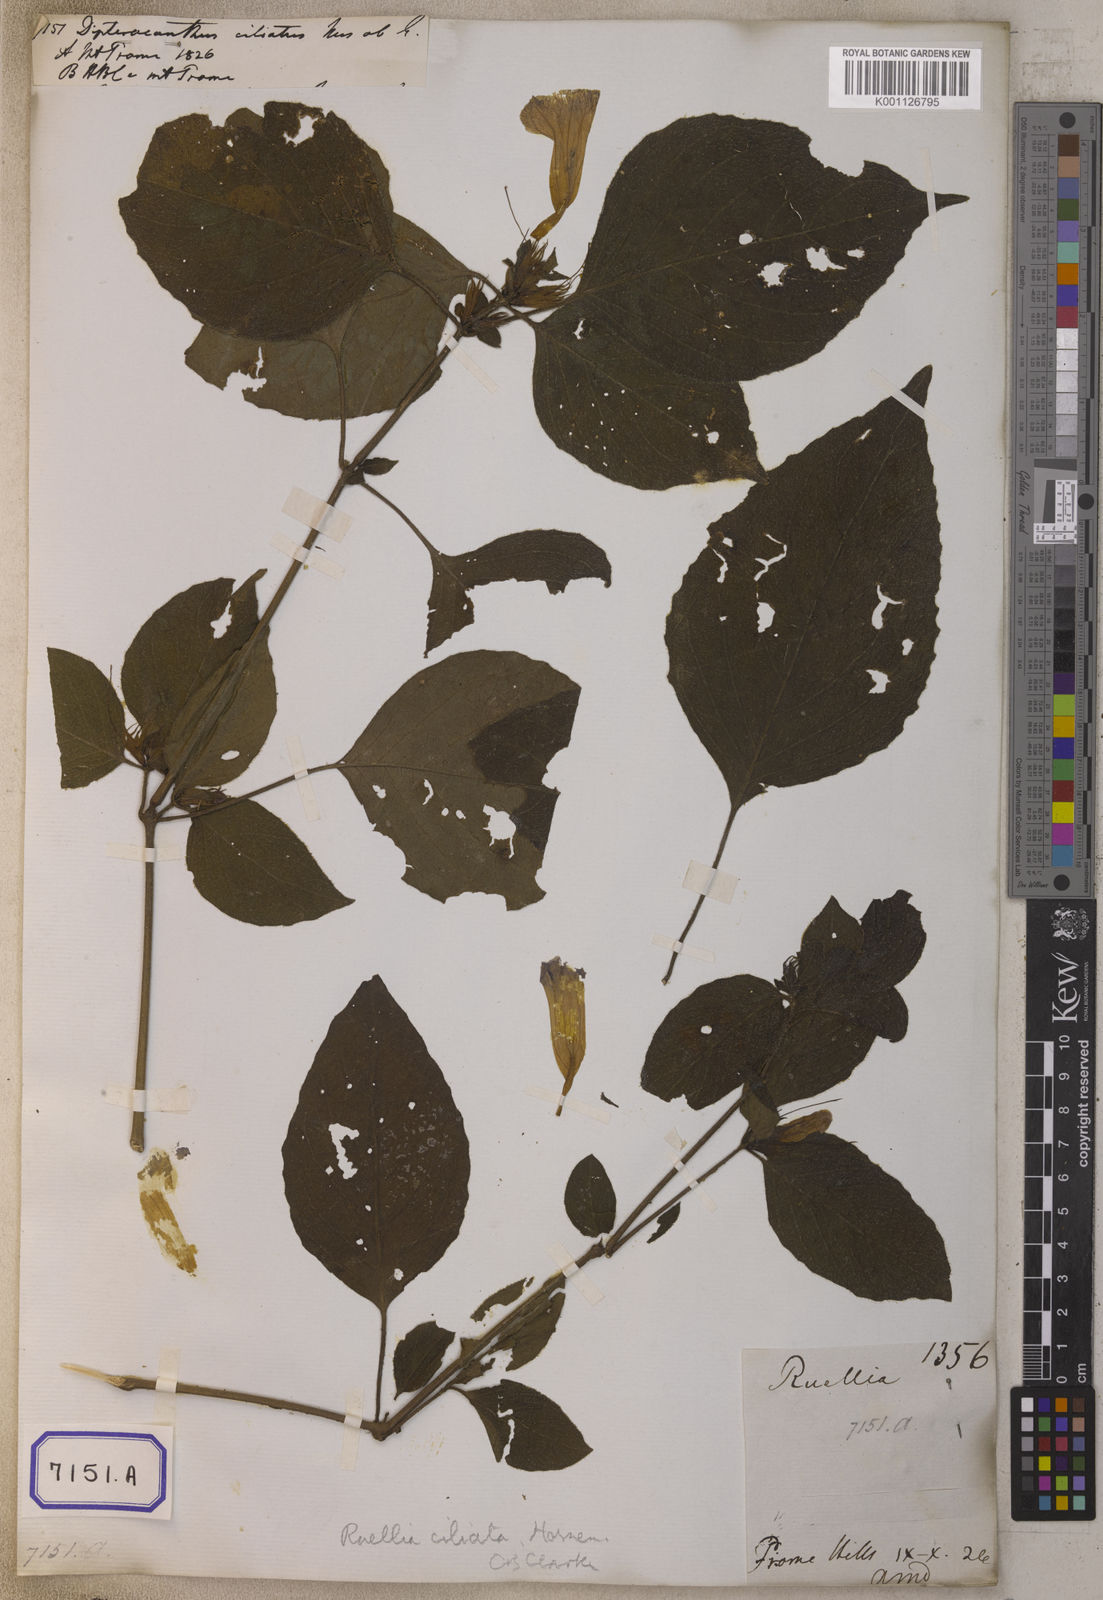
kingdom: Plantae
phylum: Tracheophyta
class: Magnoliopsida
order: Lamiales
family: Acanthaceae
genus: Ruellia
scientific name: Ruellia ciliata
